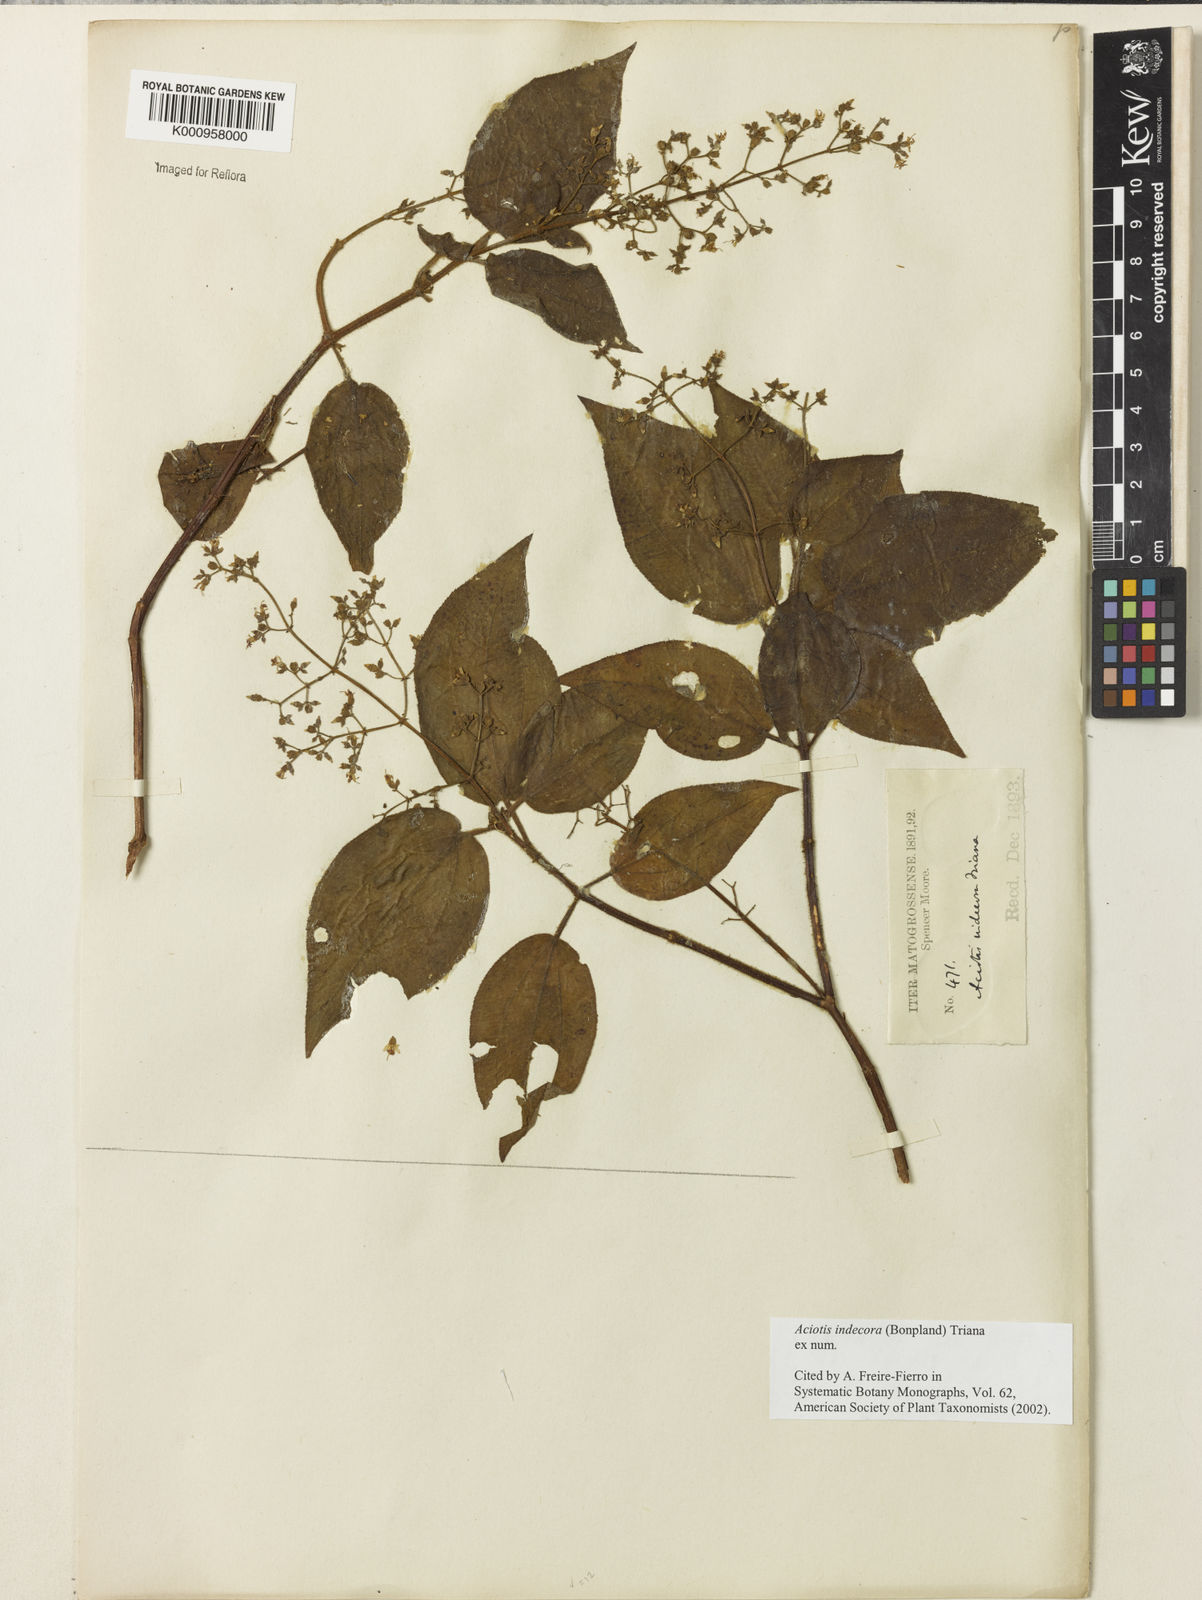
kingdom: Plantae
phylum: Tracheophyta
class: Magnoliopsida
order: Myrtales
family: Melastomataceae
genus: Aciotis
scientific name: Aciotis indecora
